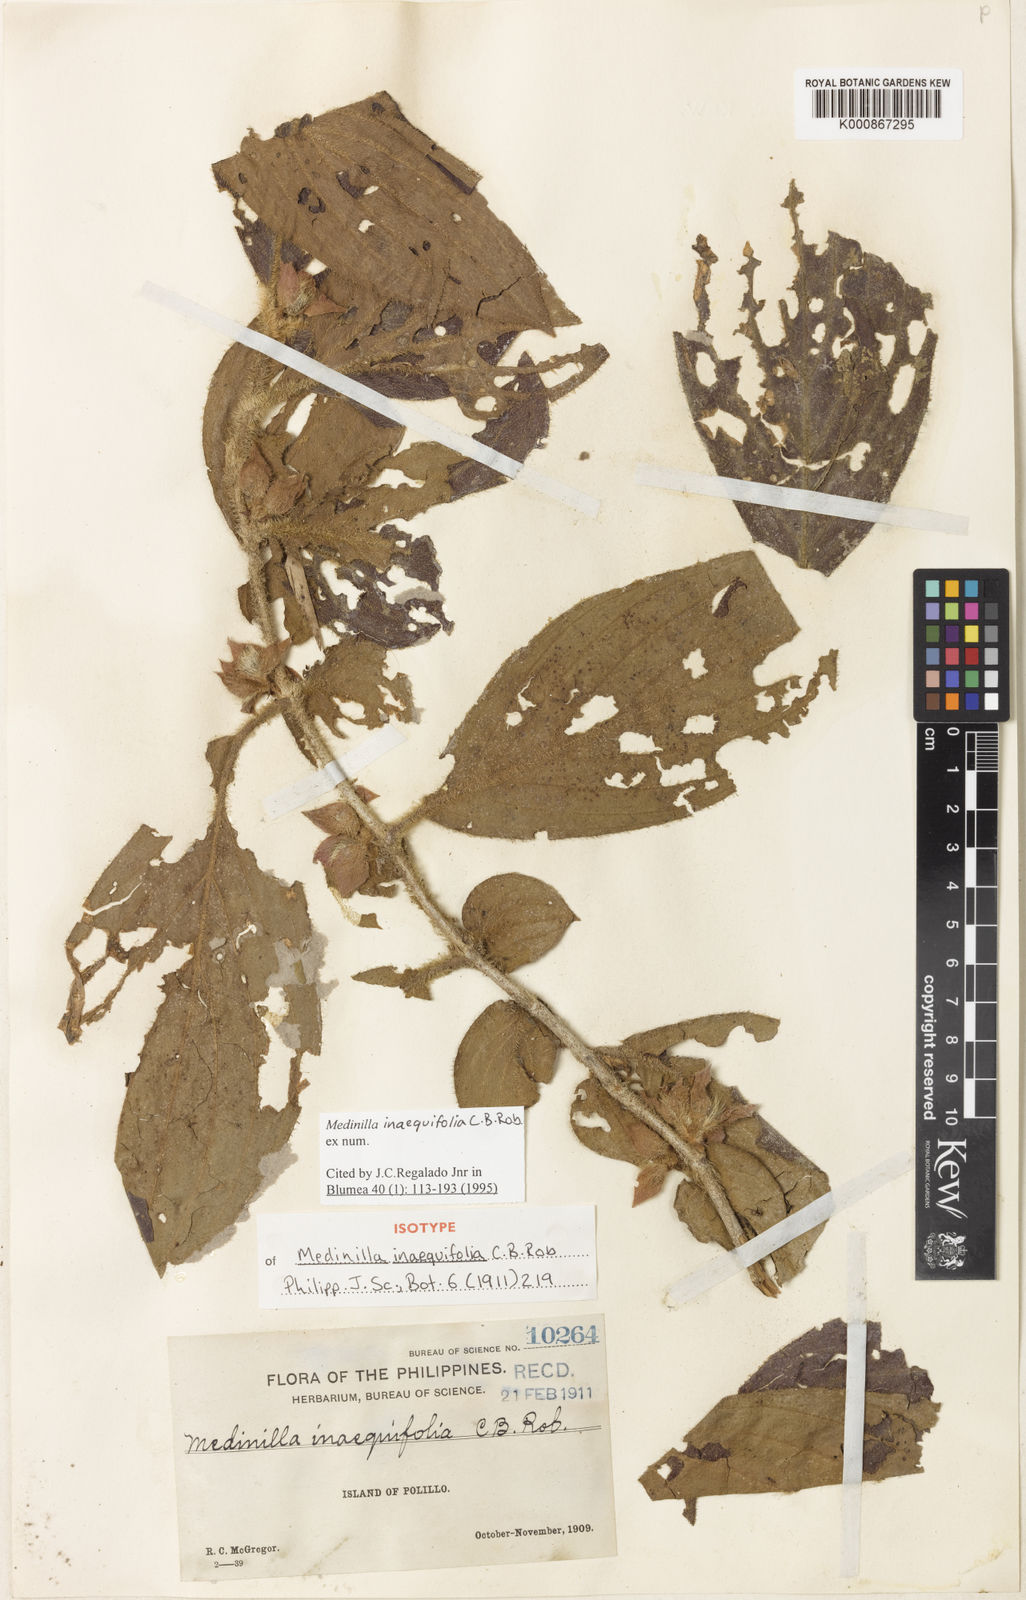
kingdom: Plantae
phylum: Tracheophyta
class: Magnoliopsida
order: Myrtales
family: Melastomataceae
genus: Medinilla
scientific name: Medinilla inaequifolia
